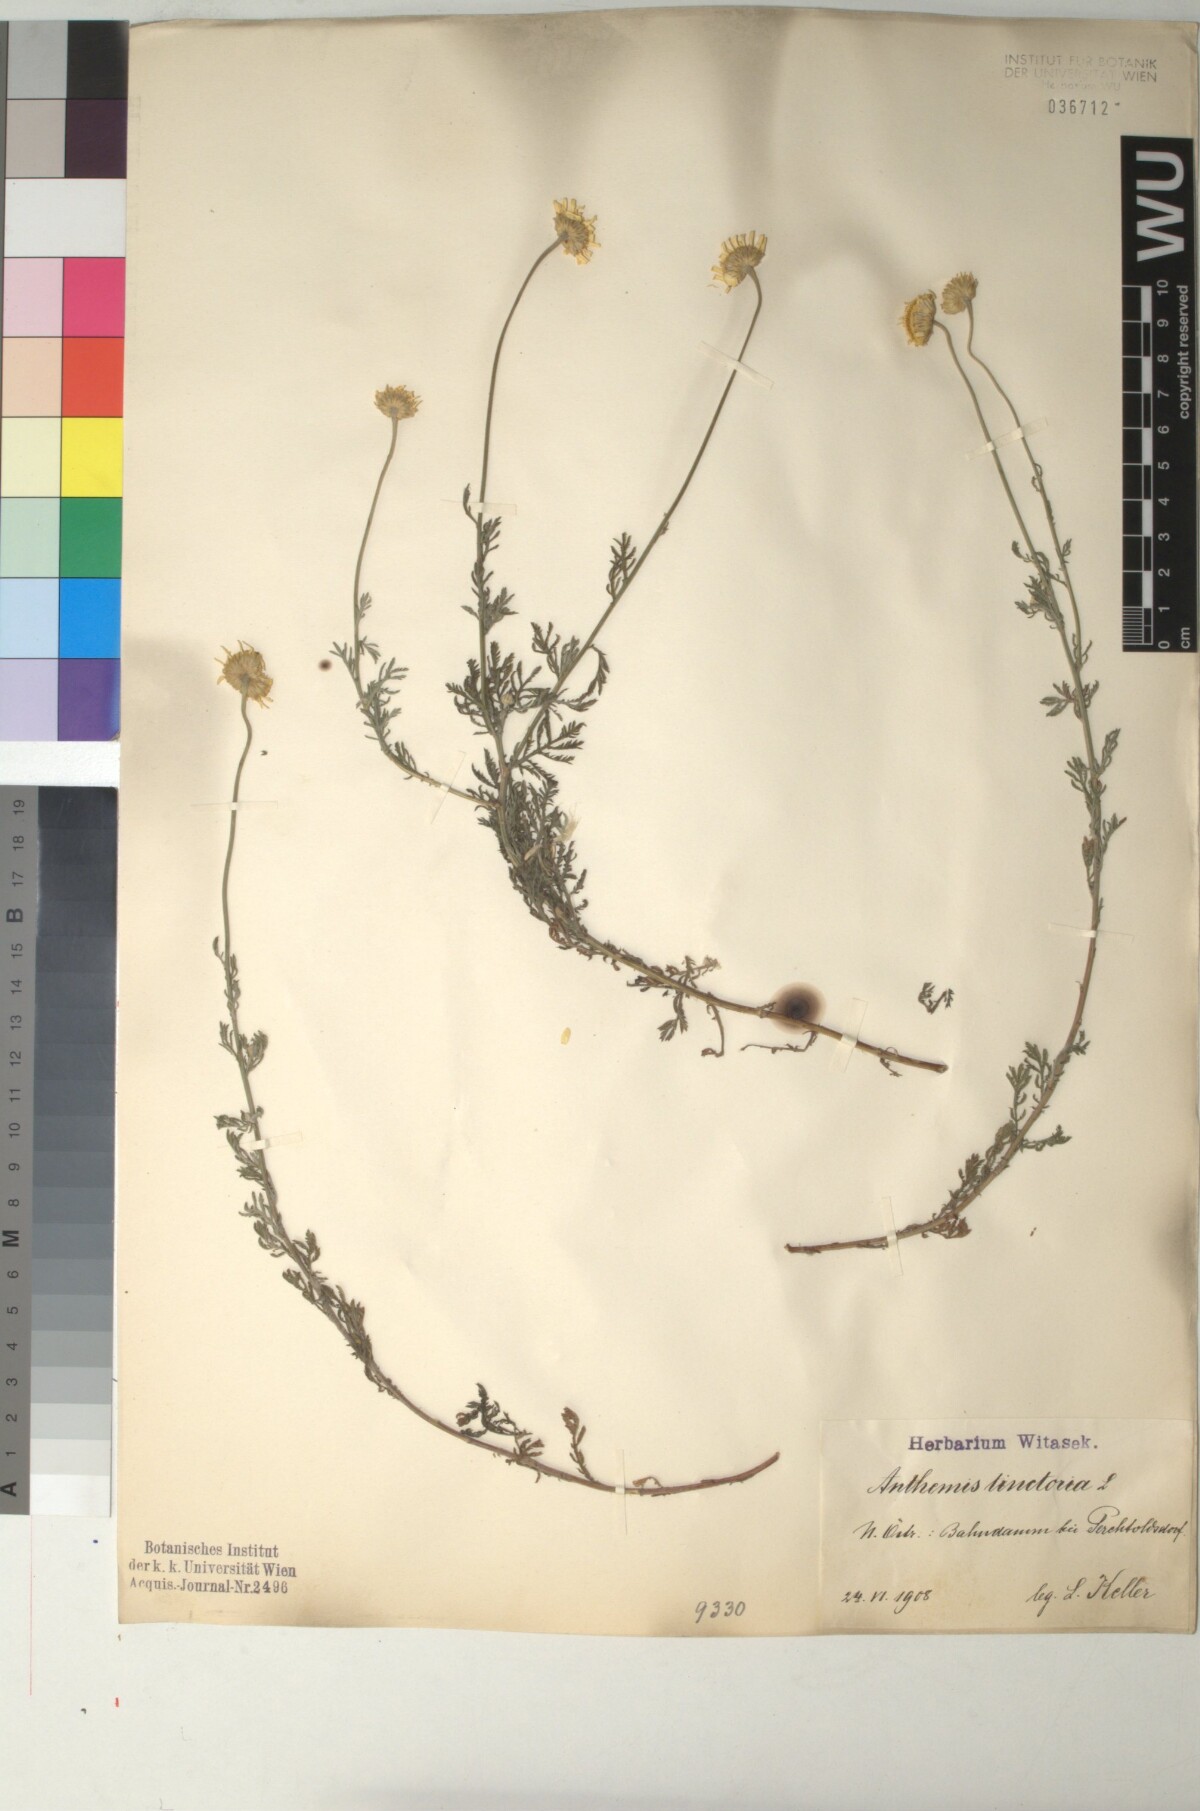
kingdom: Plantae
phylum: Tracheophyta
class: Magnoliopsida
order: Asterales
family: Asteraceae
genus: Cota
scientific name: Cota tinctoria
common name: Golden chamomile
